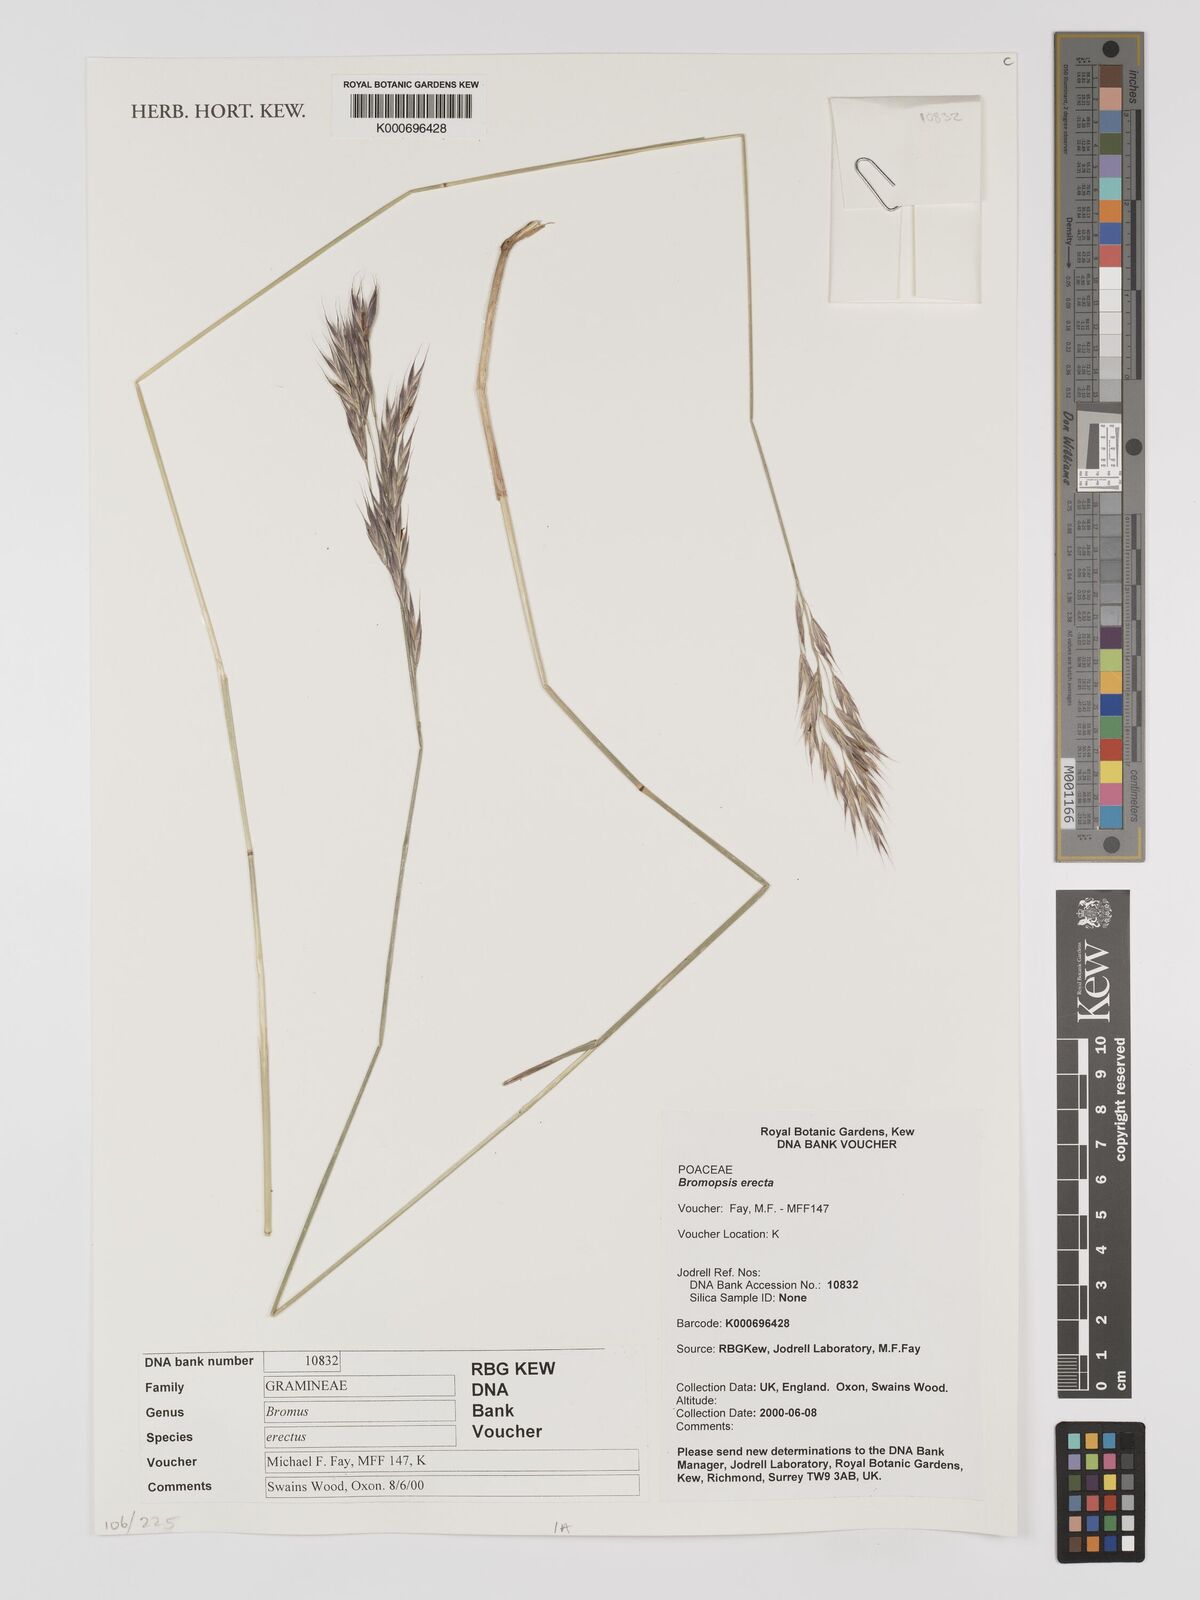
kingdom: Plantae
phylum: Tracheophyta
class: Liliopsida
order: Poales
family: Poaceae
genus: Bromus
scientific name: Bromus erectus
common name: Erect brome
